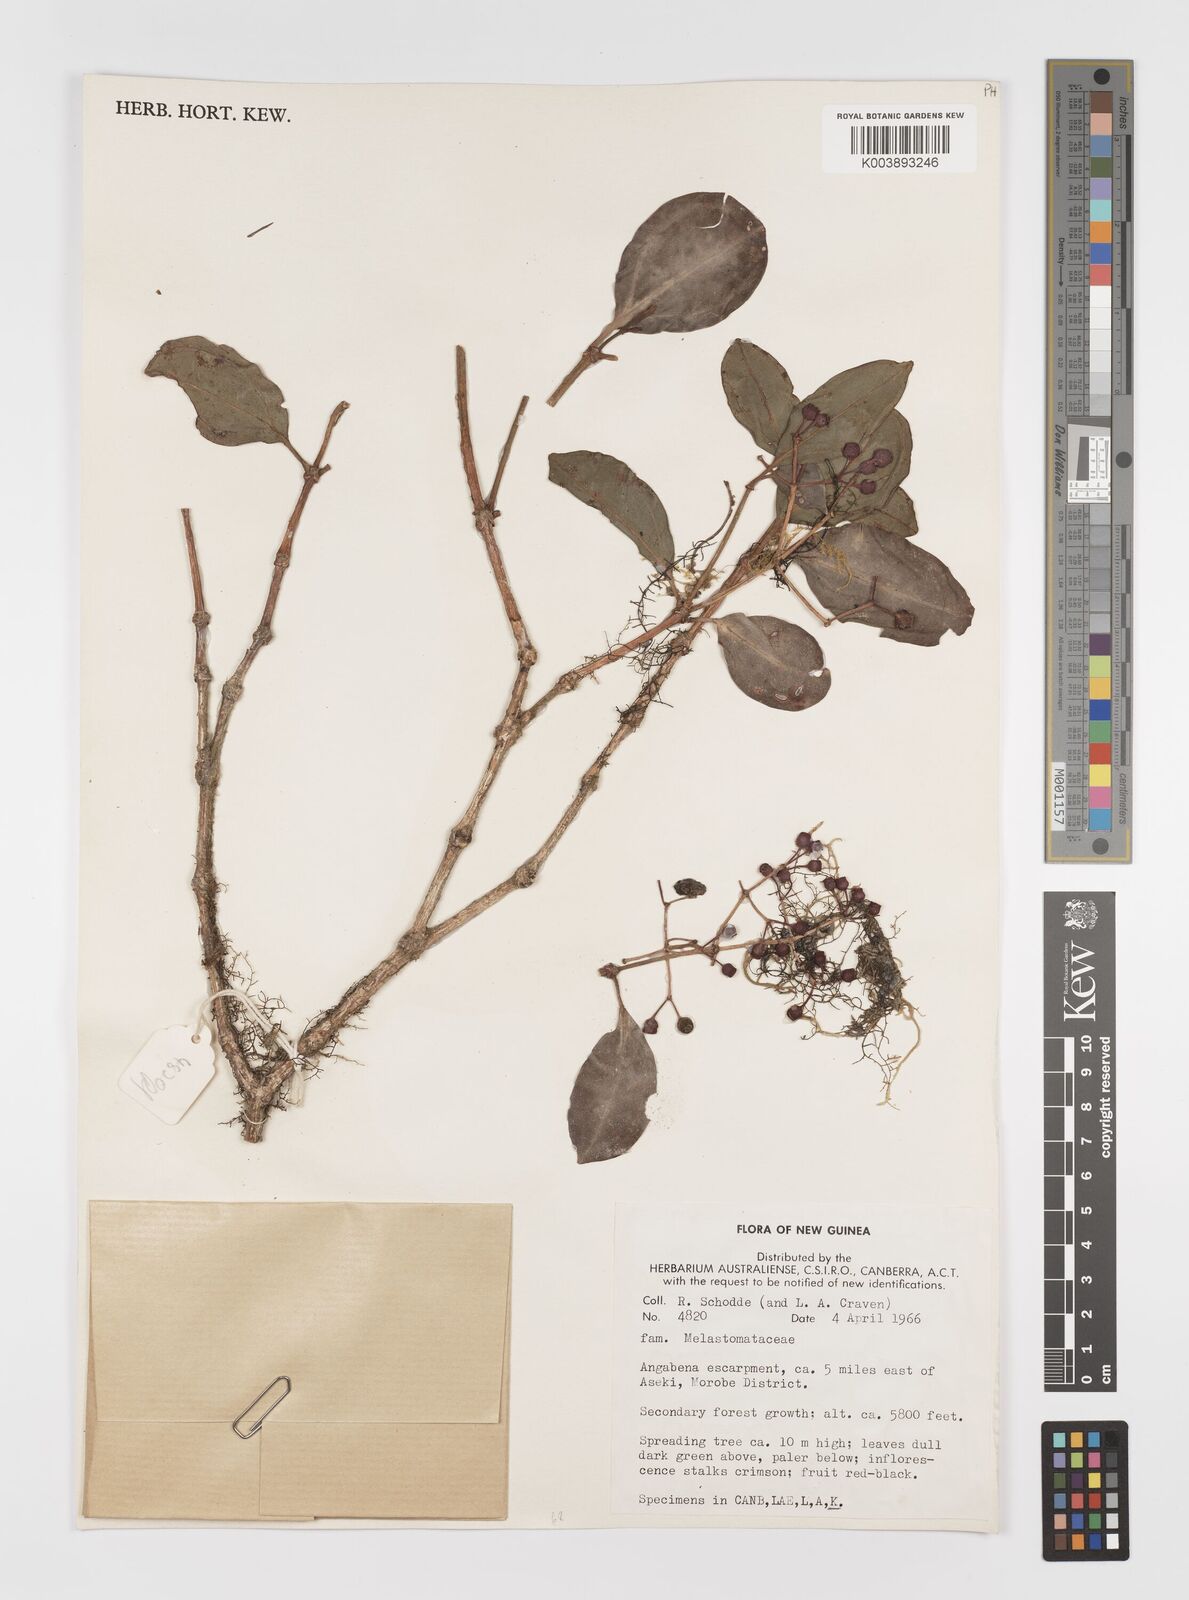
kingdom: Plantae
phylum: Tracheophyta
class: Magnoliopsida
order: Myrtales
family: Melastomataceae
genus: Medinilla
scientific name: Medinilla
